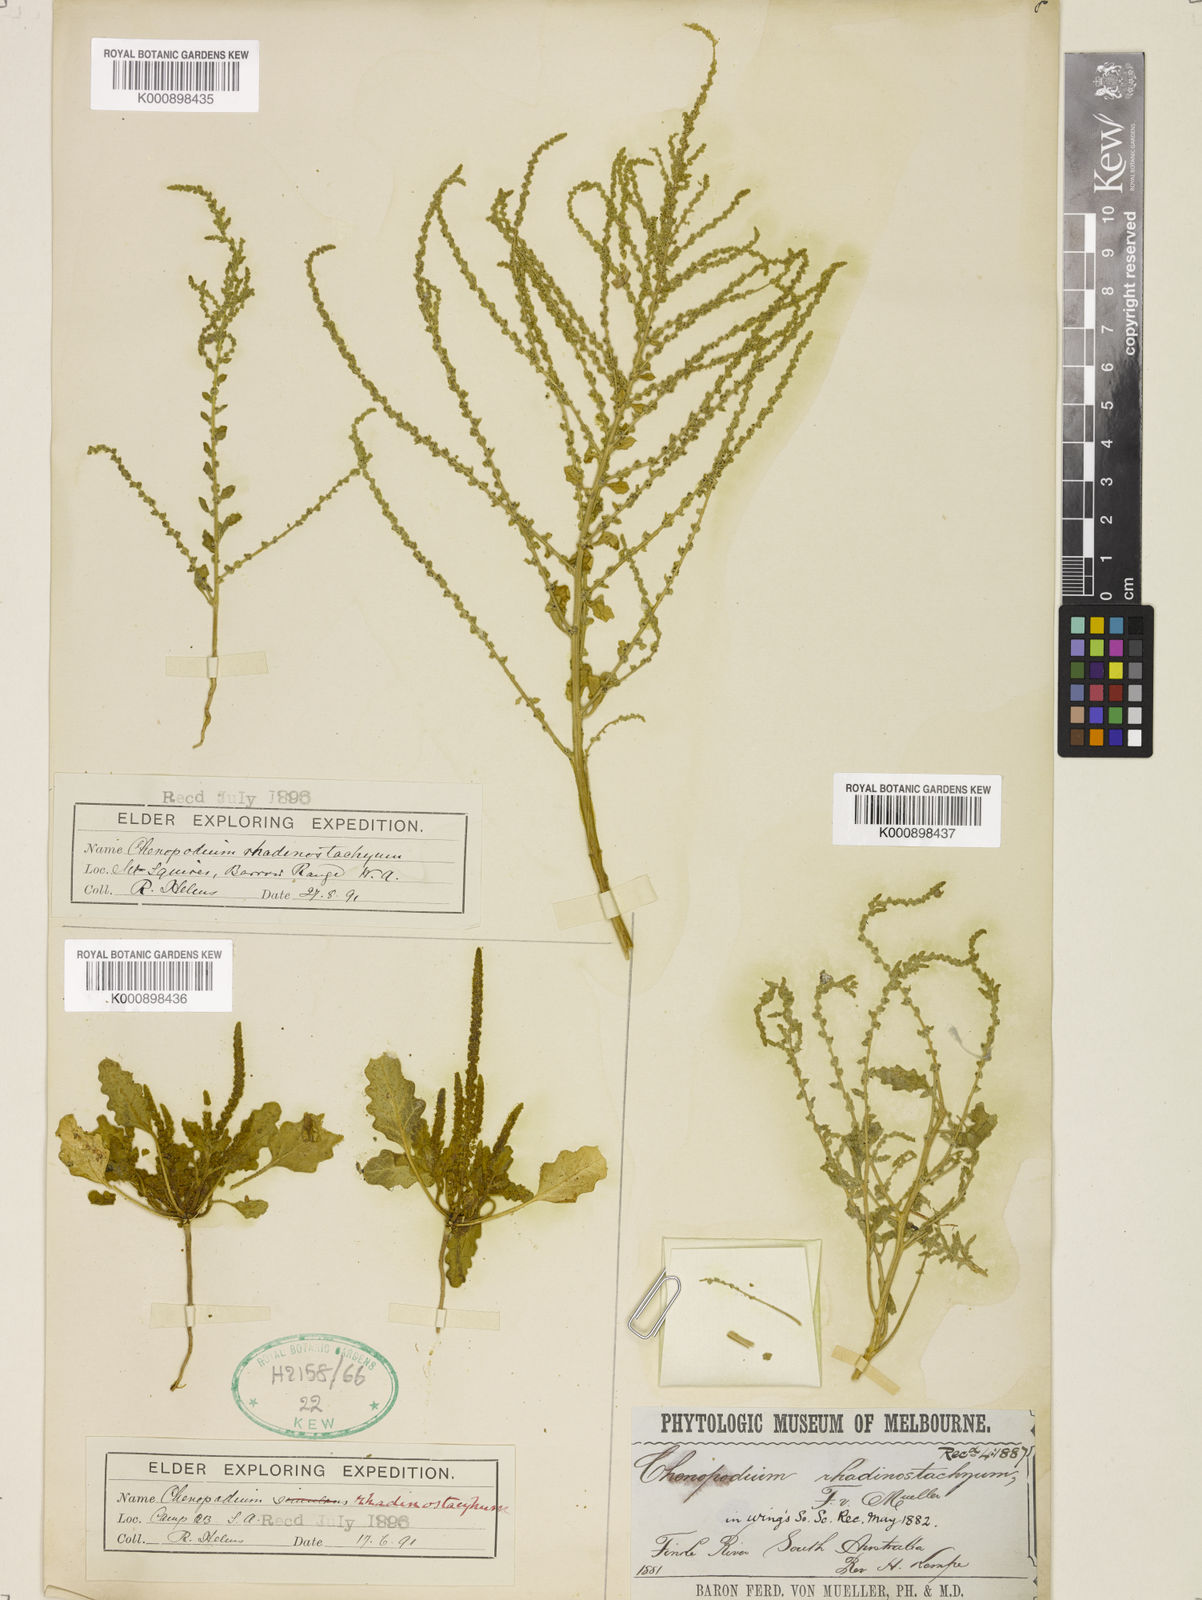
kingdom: Plantae
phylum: Tracheophyta
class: Magnoliopsida
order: Caryophyllales
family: Amaranthaceae
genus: Dysphania
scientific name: Dysphania rhadinostachya
